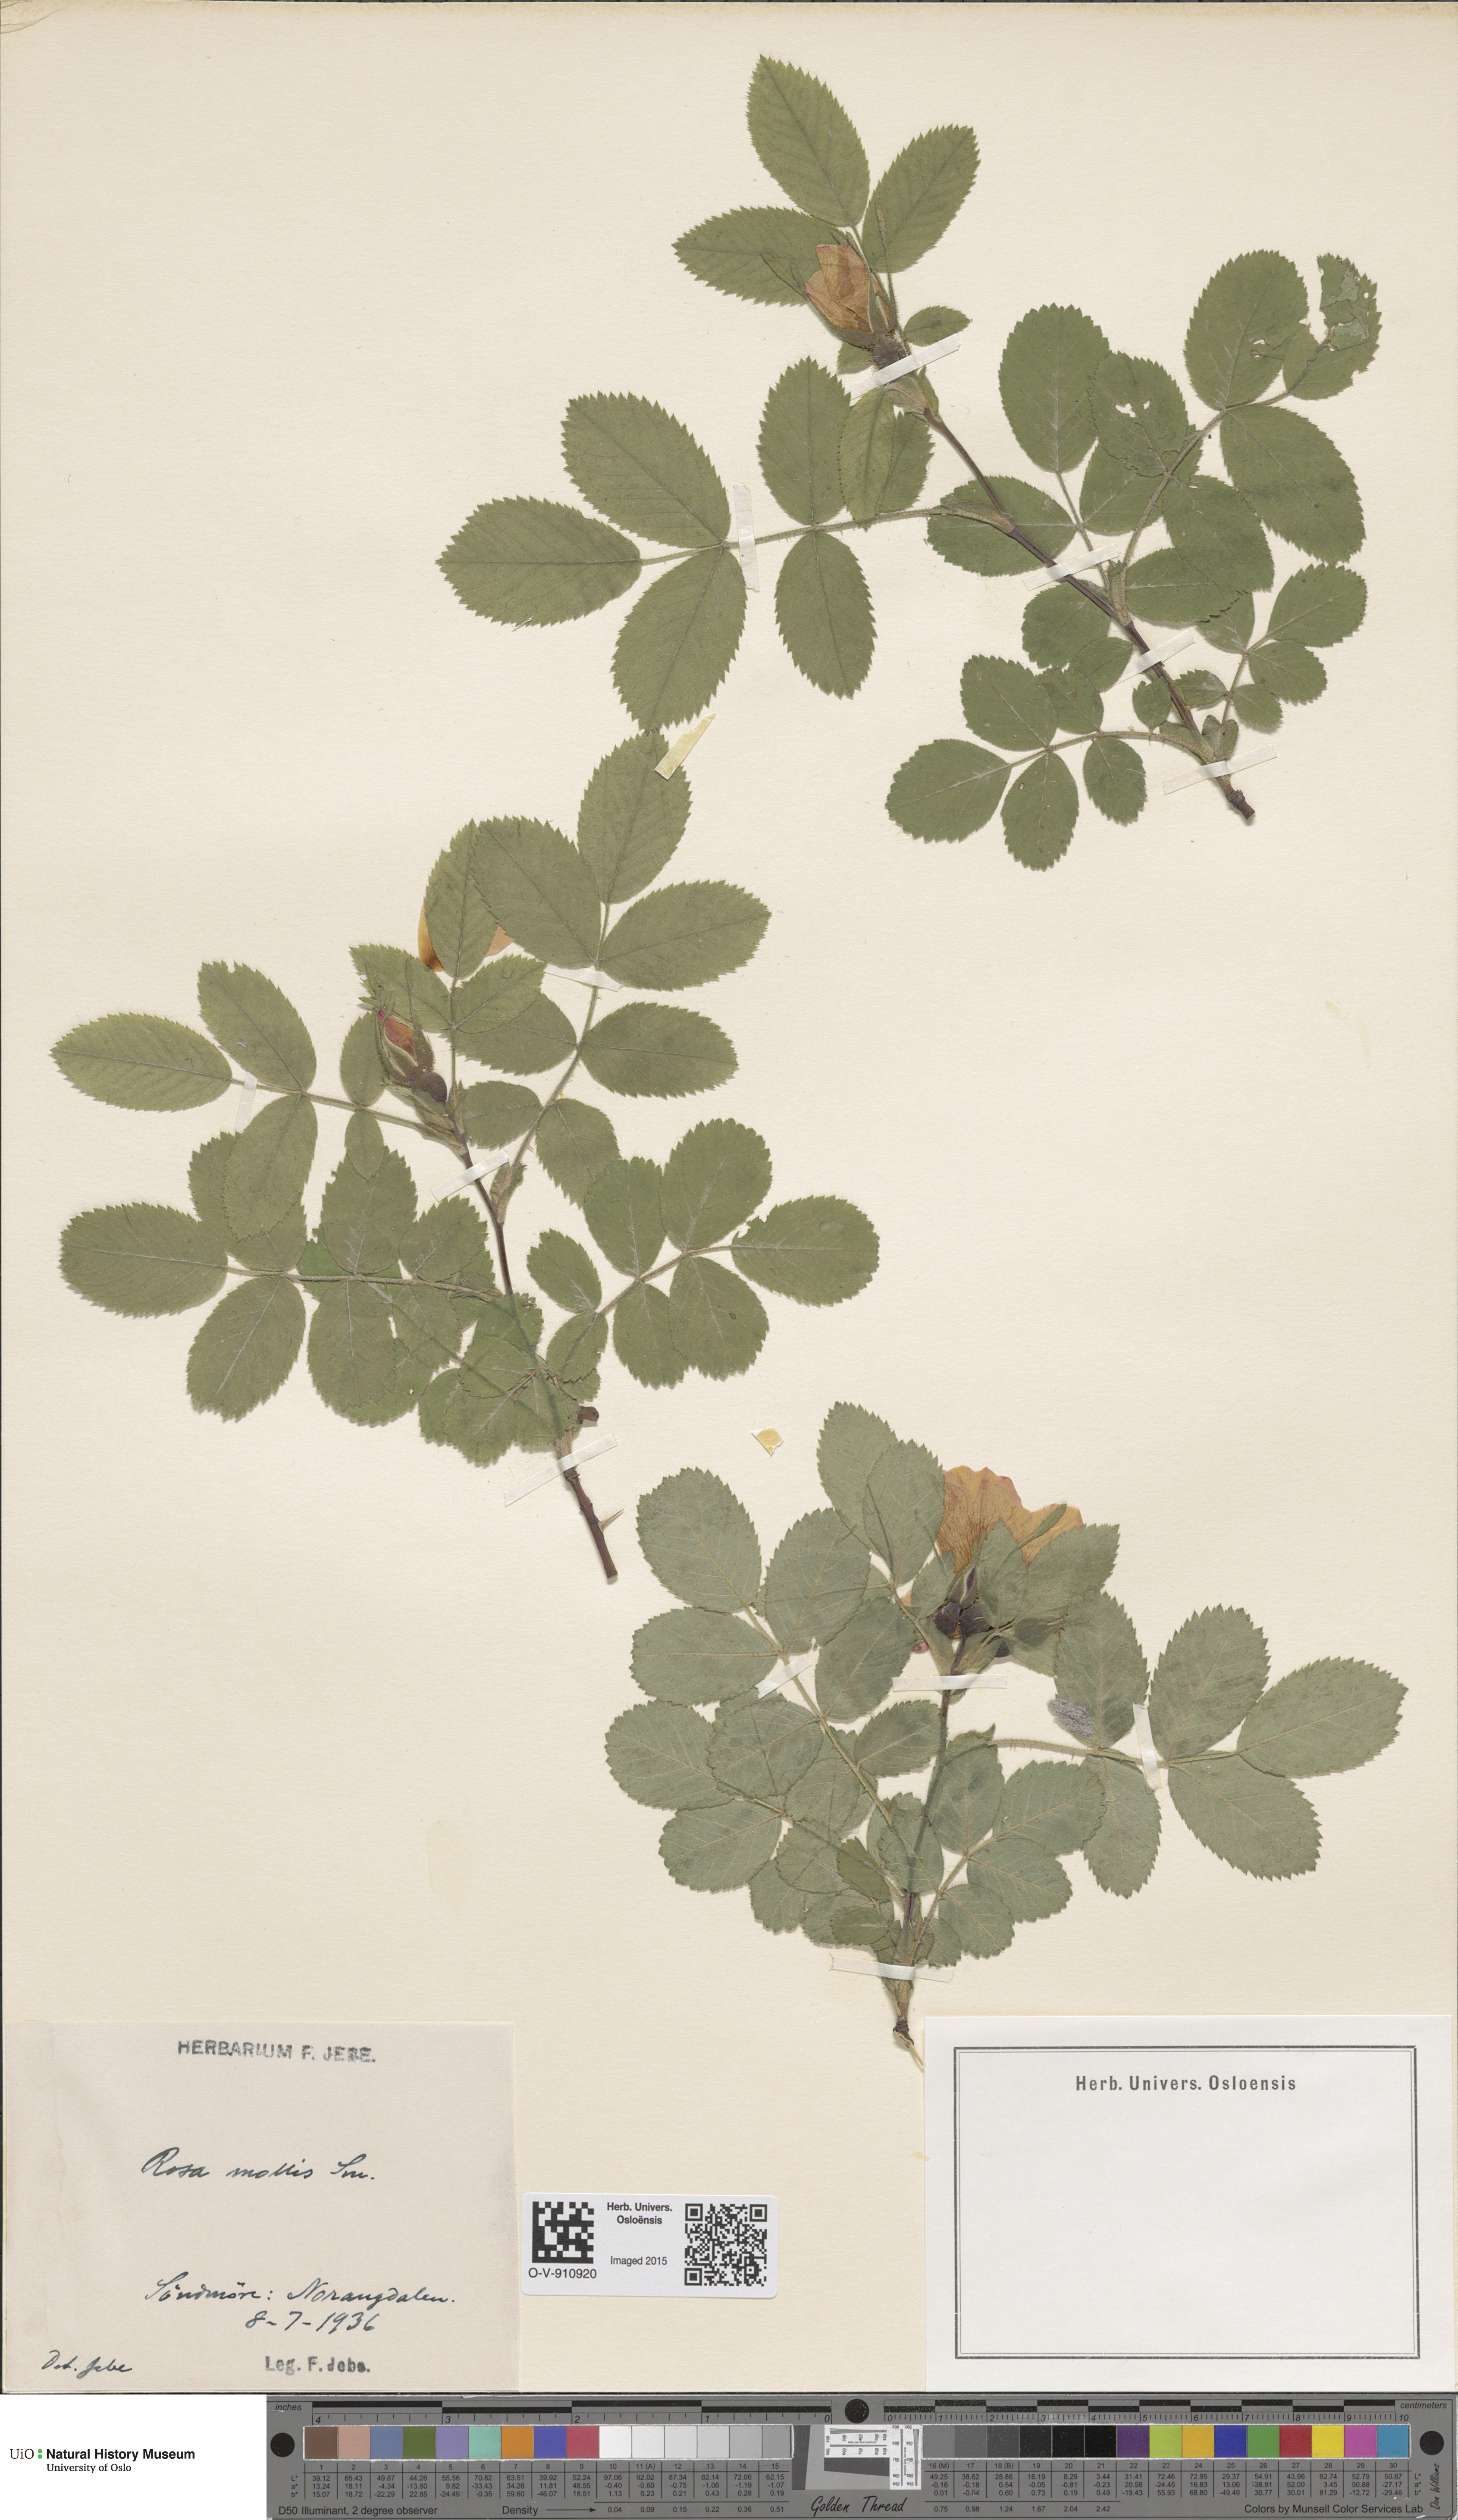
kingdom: Plantae
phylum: Tracheophyta
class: Magnoliopsida
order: Rosales
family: Rosaceae
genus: Rosa
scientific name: Rosa mollis
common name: Rose
